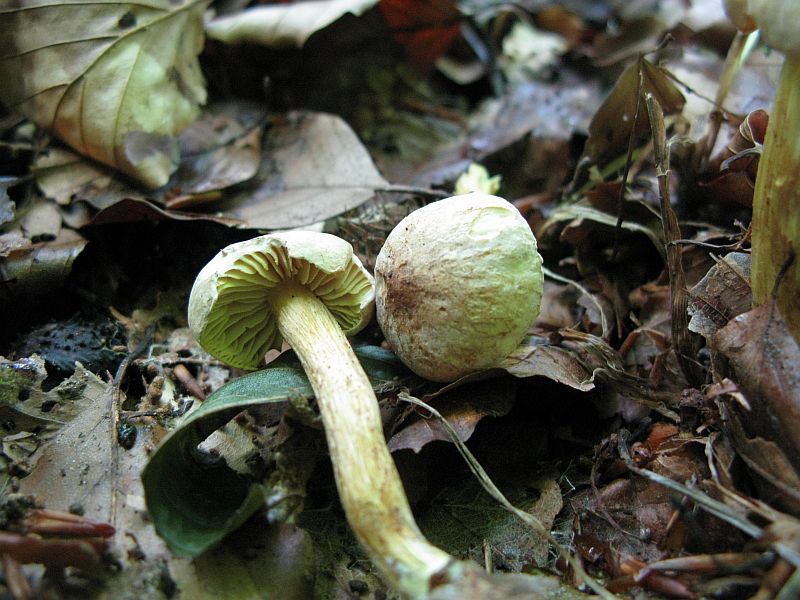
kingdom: Fungi
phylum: Basidiomycota
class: Agaricomycetes
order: Agaricales
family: Tricholomataceae
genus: Tricholoma
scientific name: Tricholoma sulphureum
